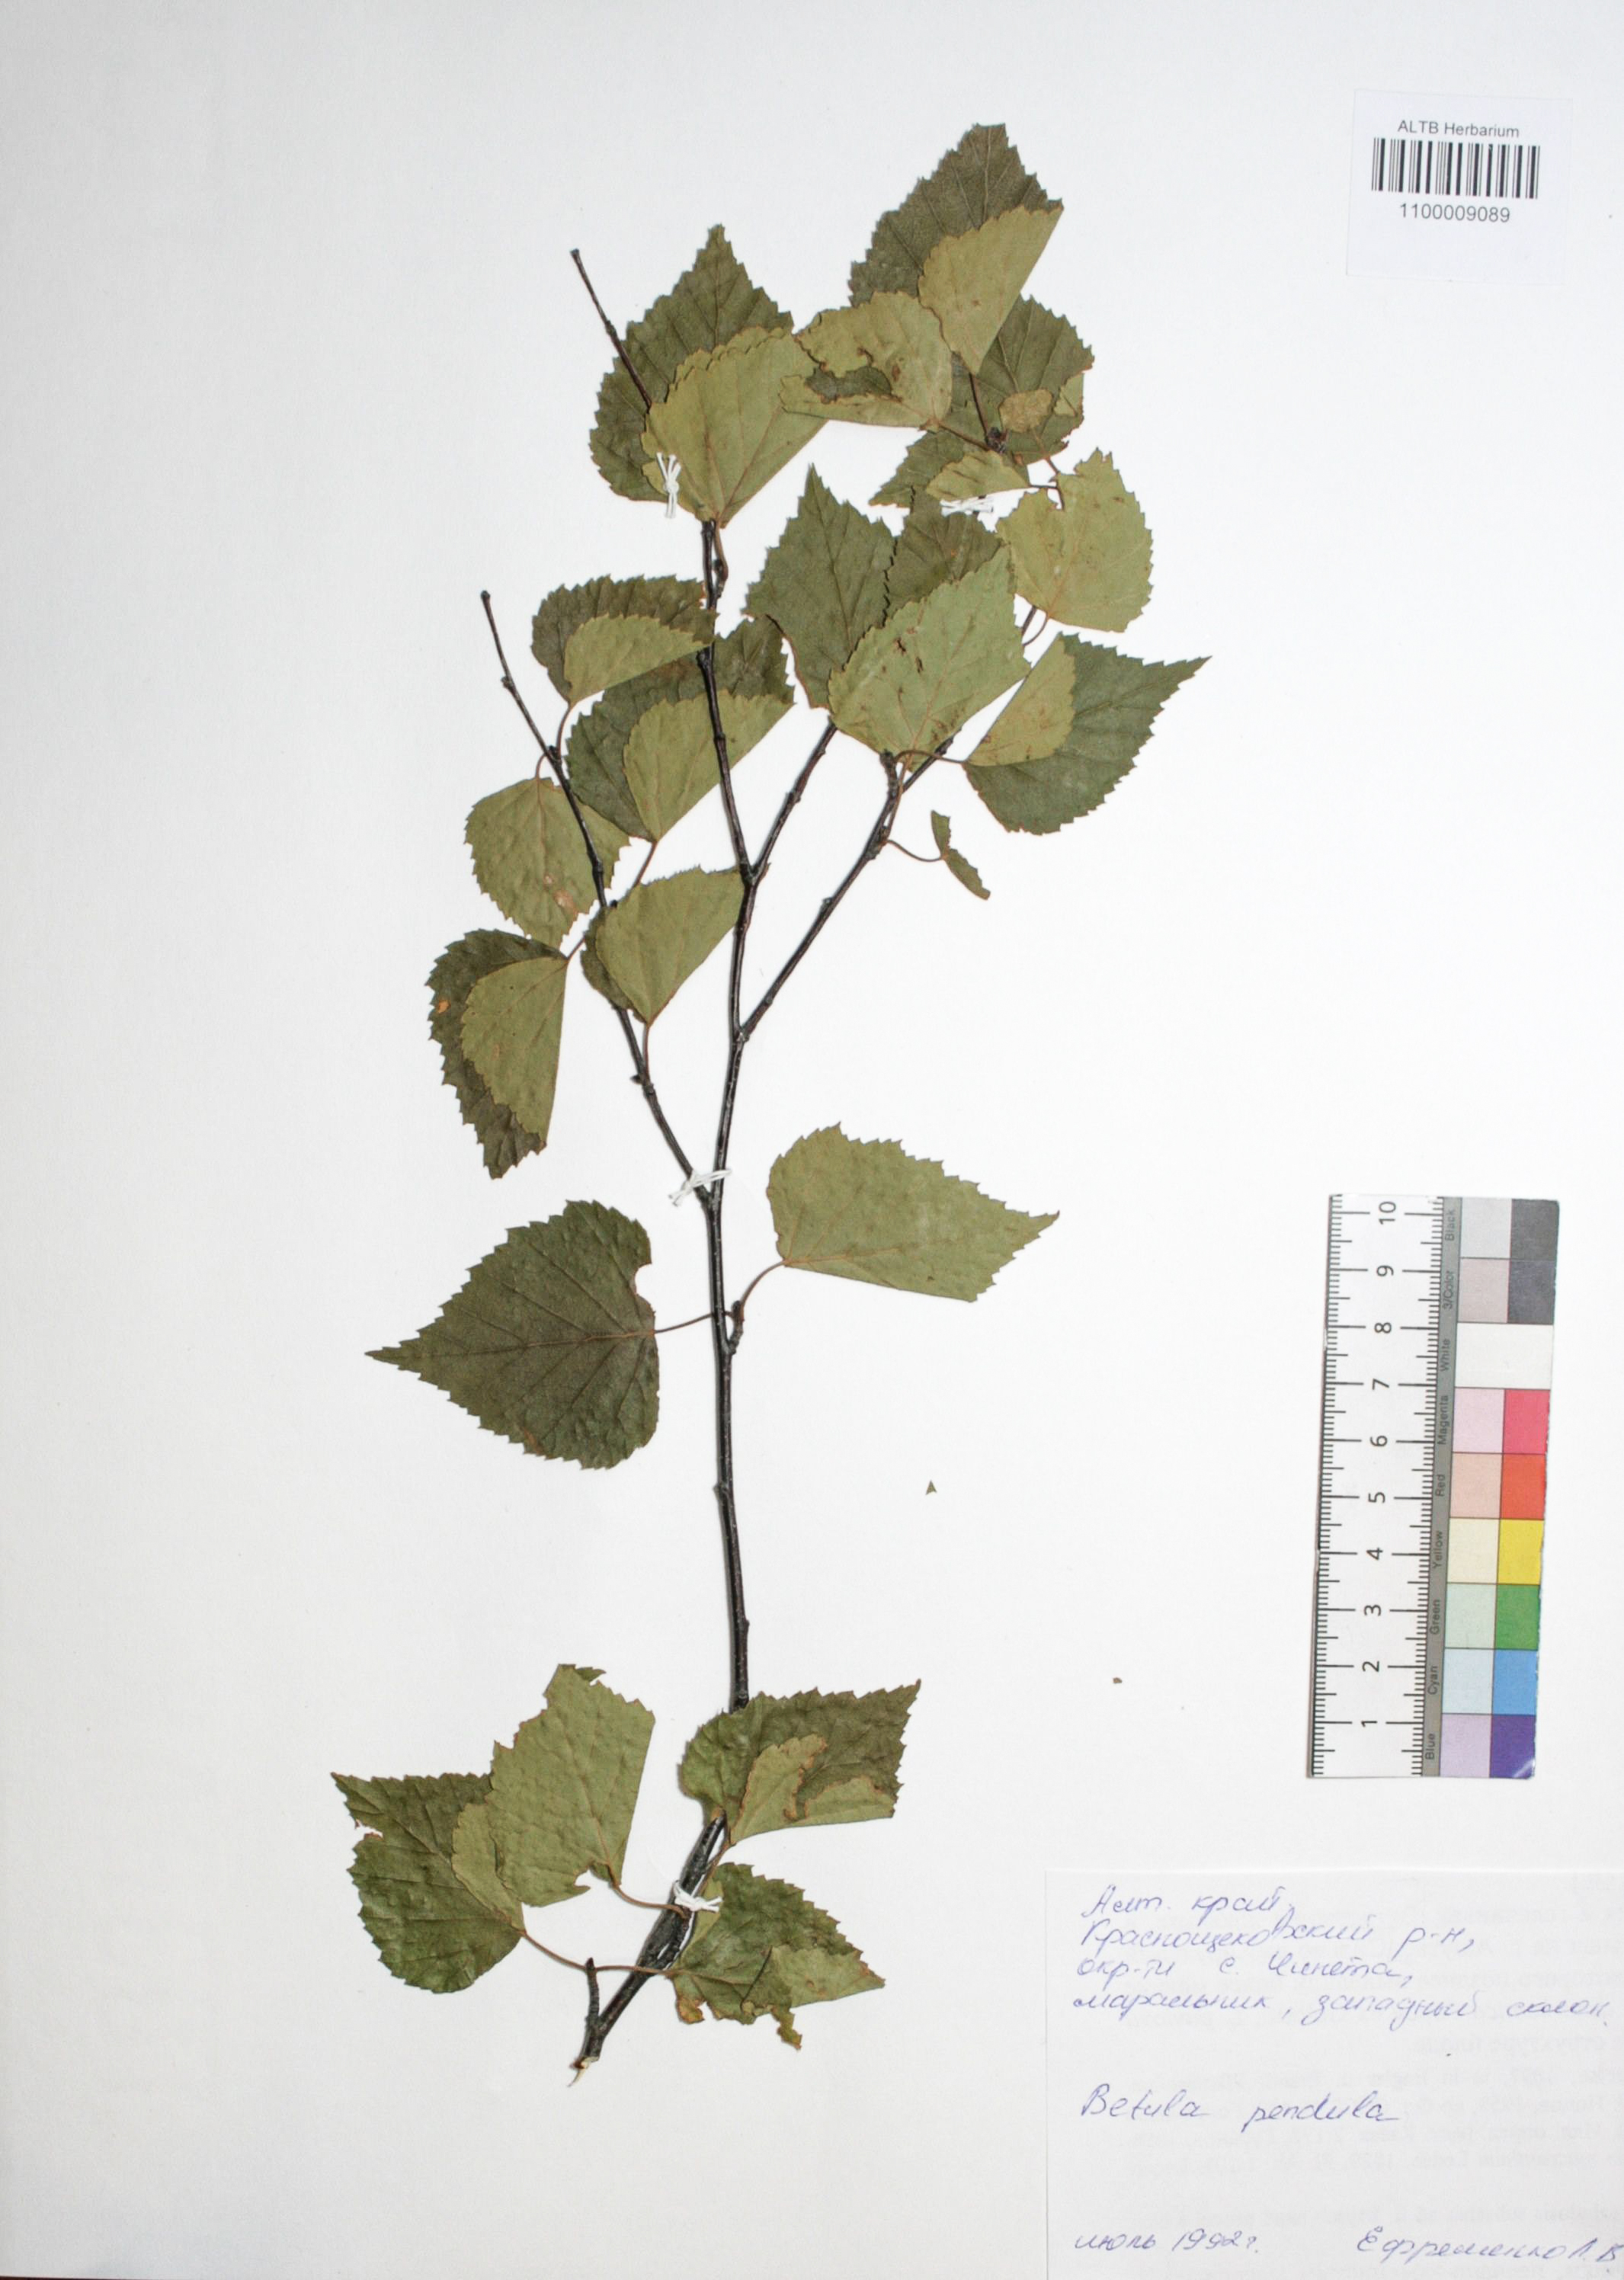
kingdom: Plantae
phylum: Tracheophyta
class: Magnoliopsida
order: Fagales
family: Betulaceae
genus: Betula
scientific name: Betula pendula
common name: Silver birch
